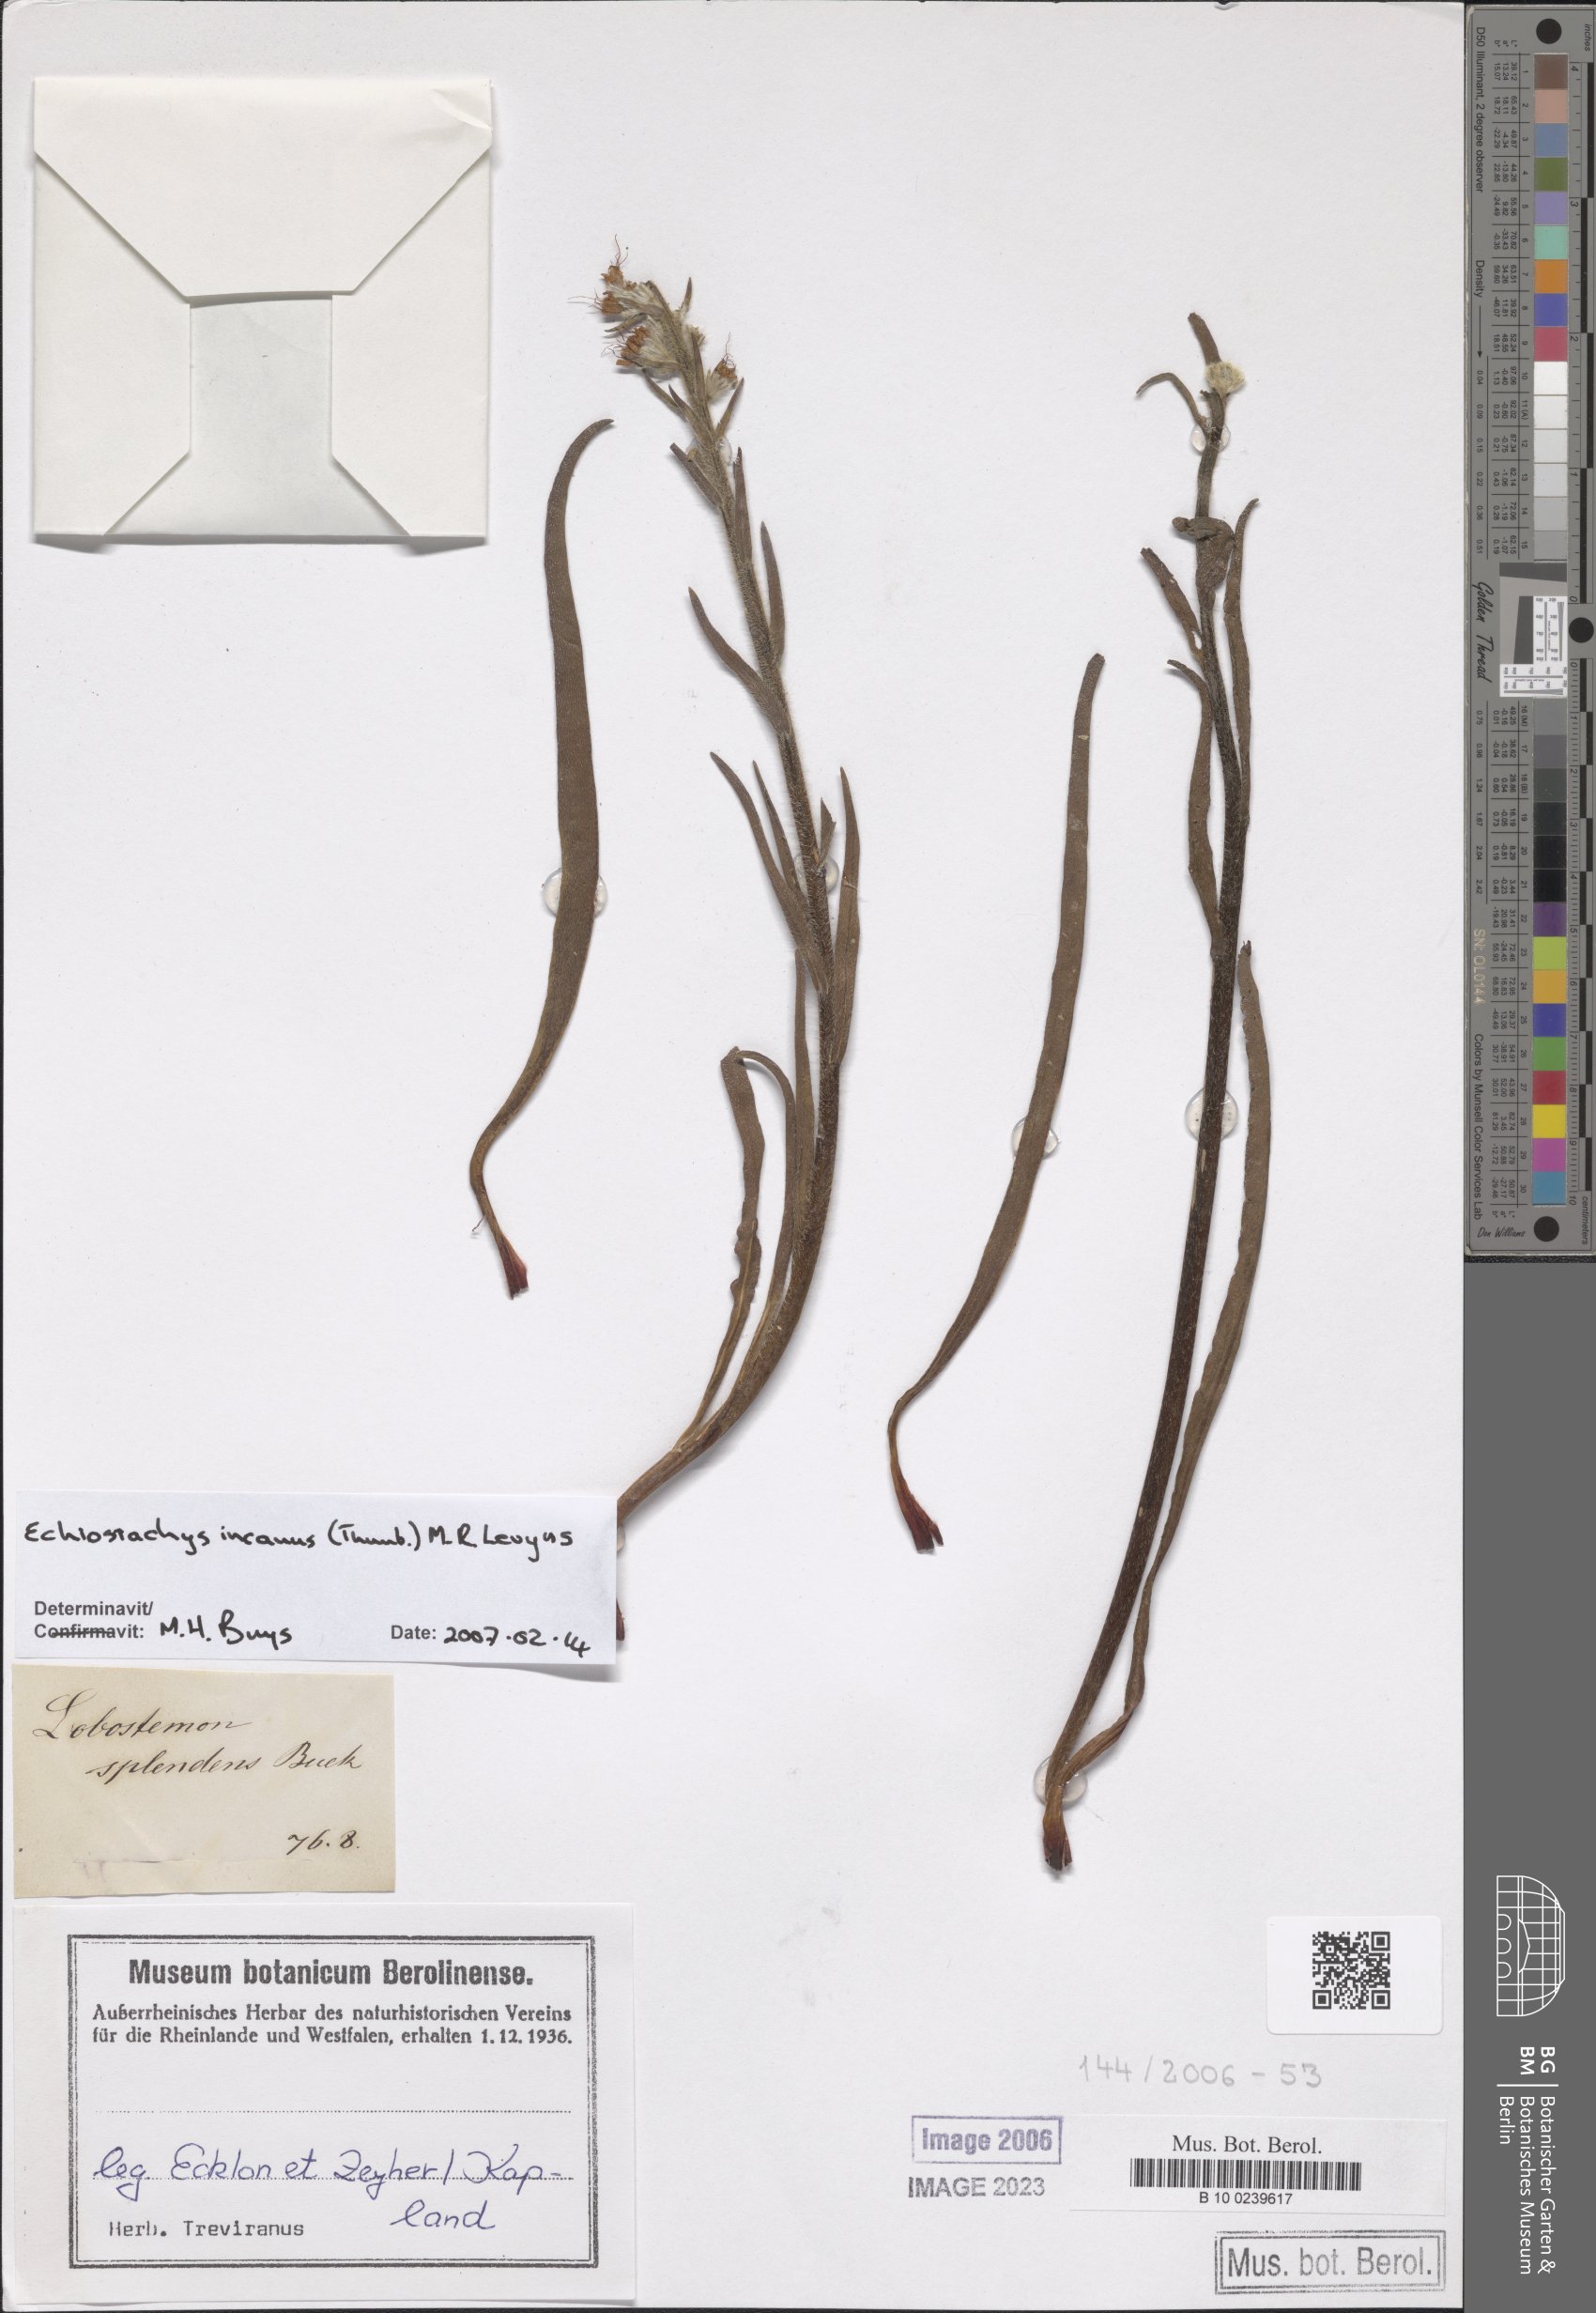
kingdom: Plantae
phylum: Tracheophyta
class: Magnoliopsida
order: Boraginales
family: Boraginaceae
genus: Lobostemon
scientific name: Lobostemon splendens
